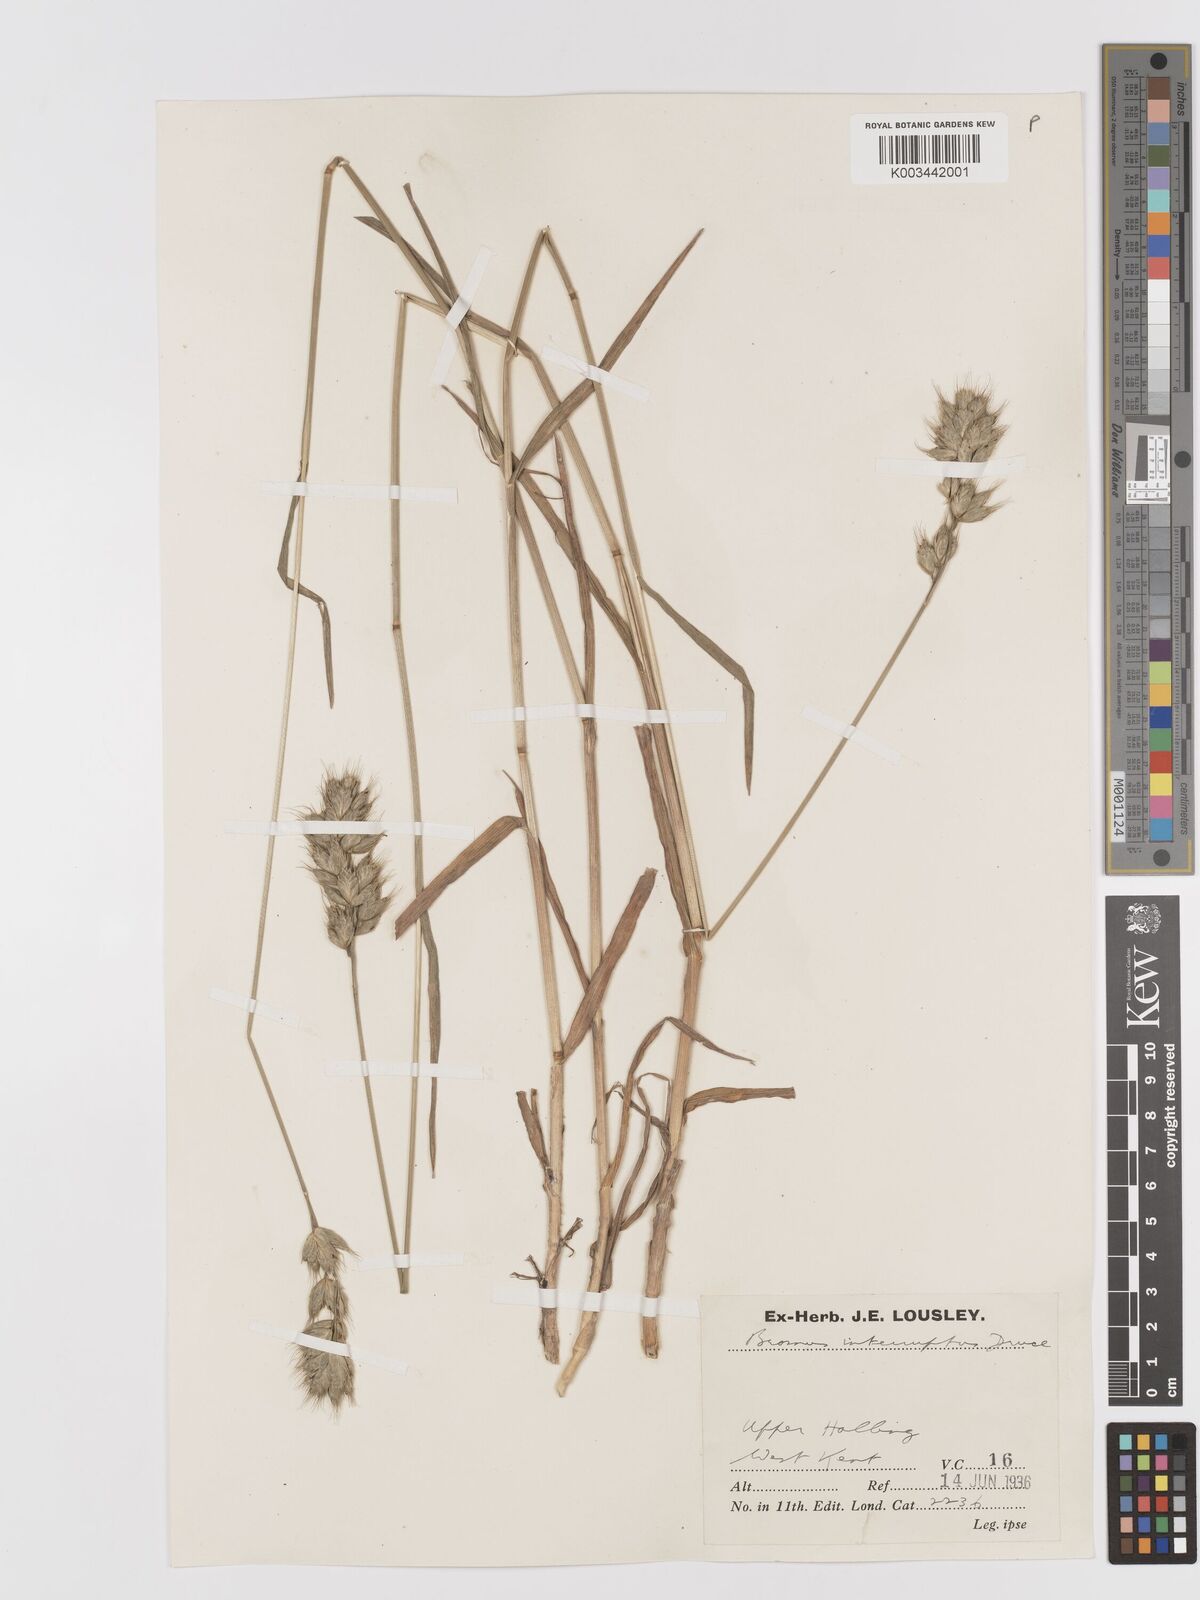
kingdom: Plantae
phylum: Tracheophyta
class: Liliopsida
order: Poales
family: Poaceae
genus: Bromus
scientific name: Bromus interruptus
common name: Interrupted brome
